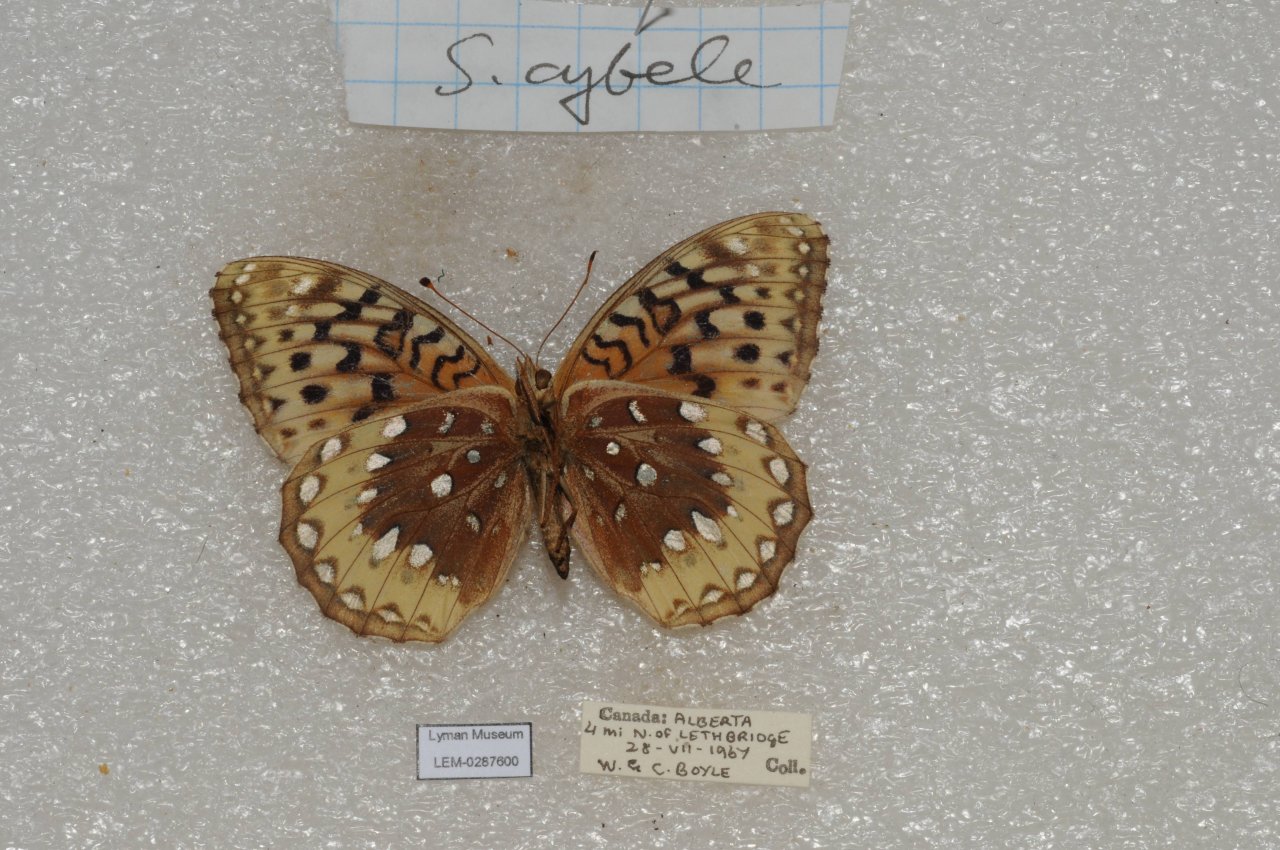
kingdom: Animalia
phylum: Arthropoda
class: Insecta
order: Lepidoptera
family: Nymphalidae
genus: Speyeria
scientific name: Speyeria cybele
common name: Great Spangled Fritillary
